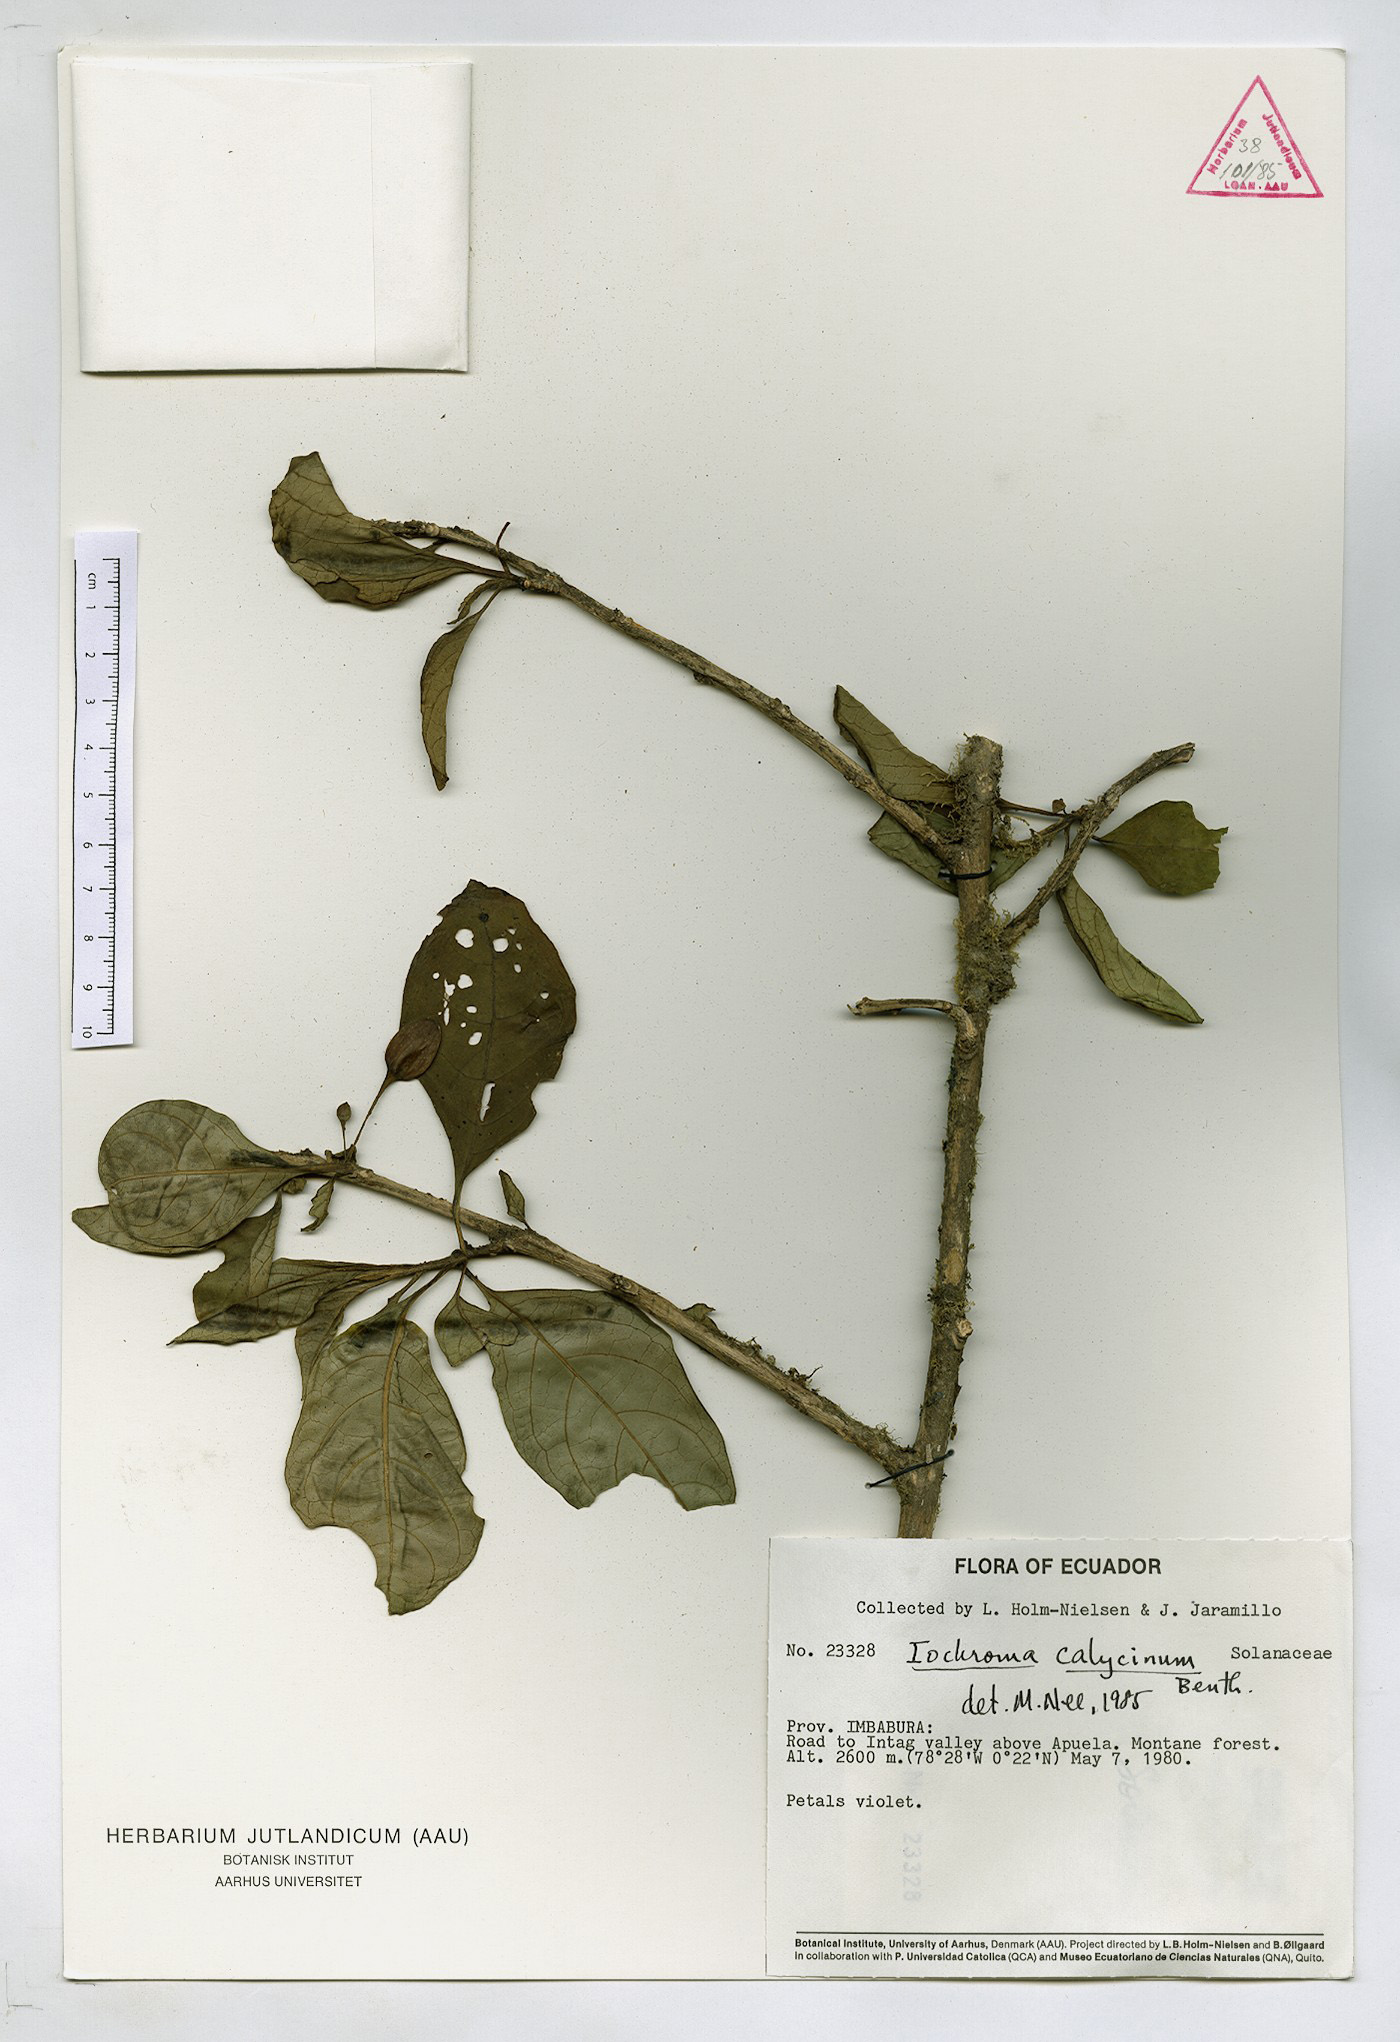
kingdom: Plantae
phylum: Tracheophyta
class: Magnoliopsida
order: Solanales
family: Solanaceae
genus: Iochroma
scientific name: Iochroma calycinum
